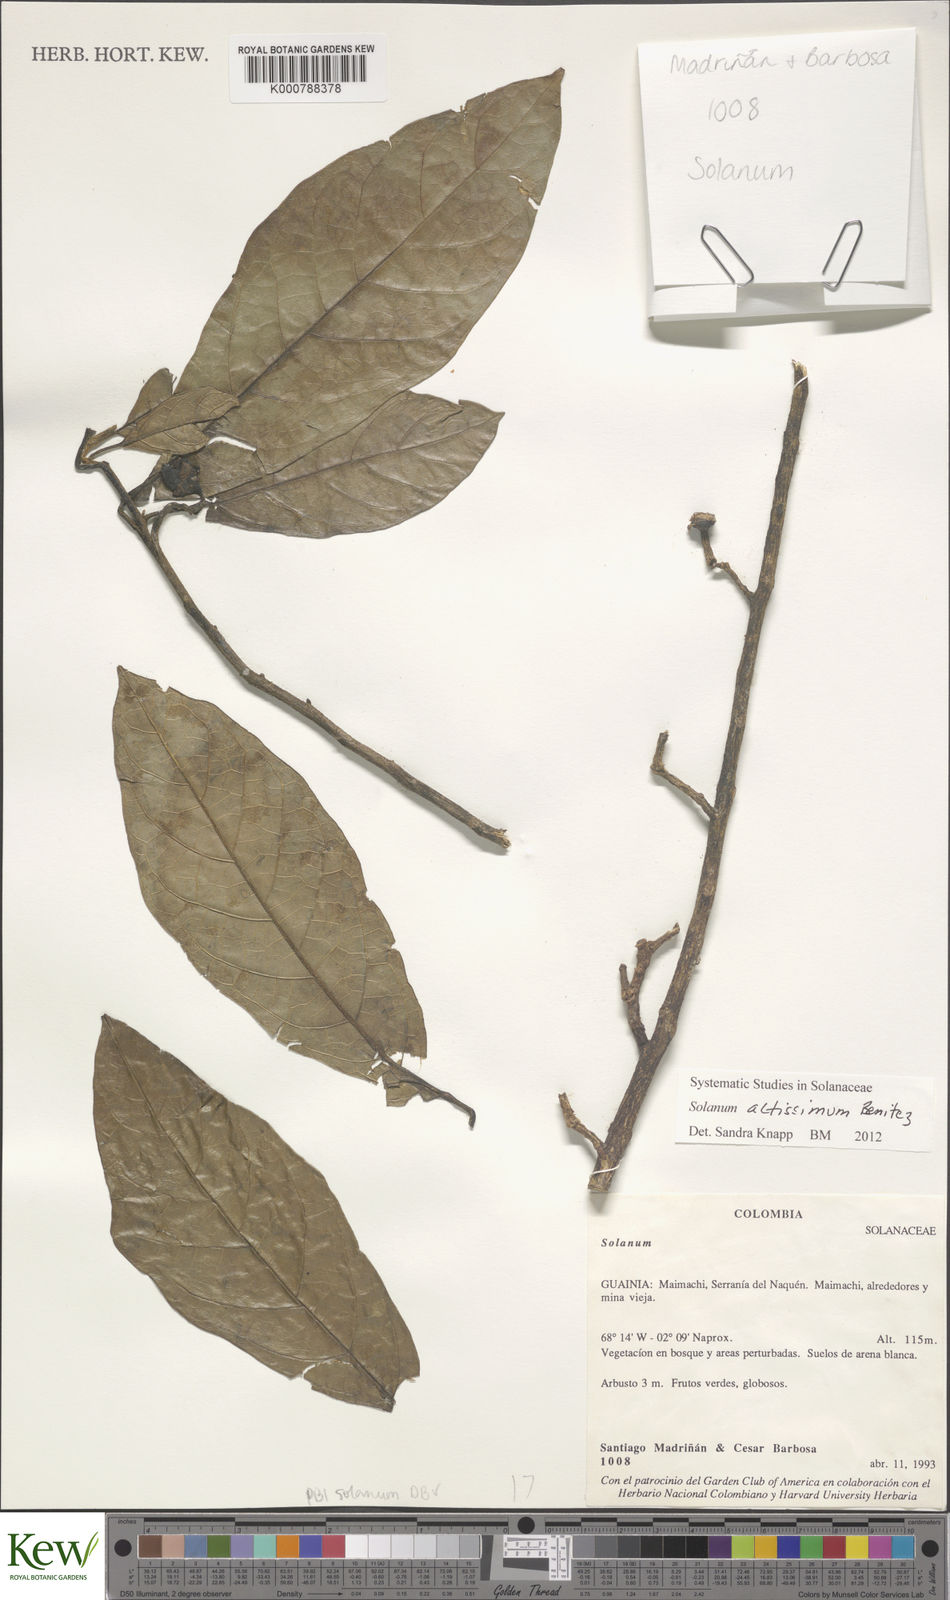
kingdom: Plantae
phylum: Tracheophyta
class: Magnoliopsida
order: Solanales
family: Solanaceae
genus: Solanum
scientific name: Solanum
